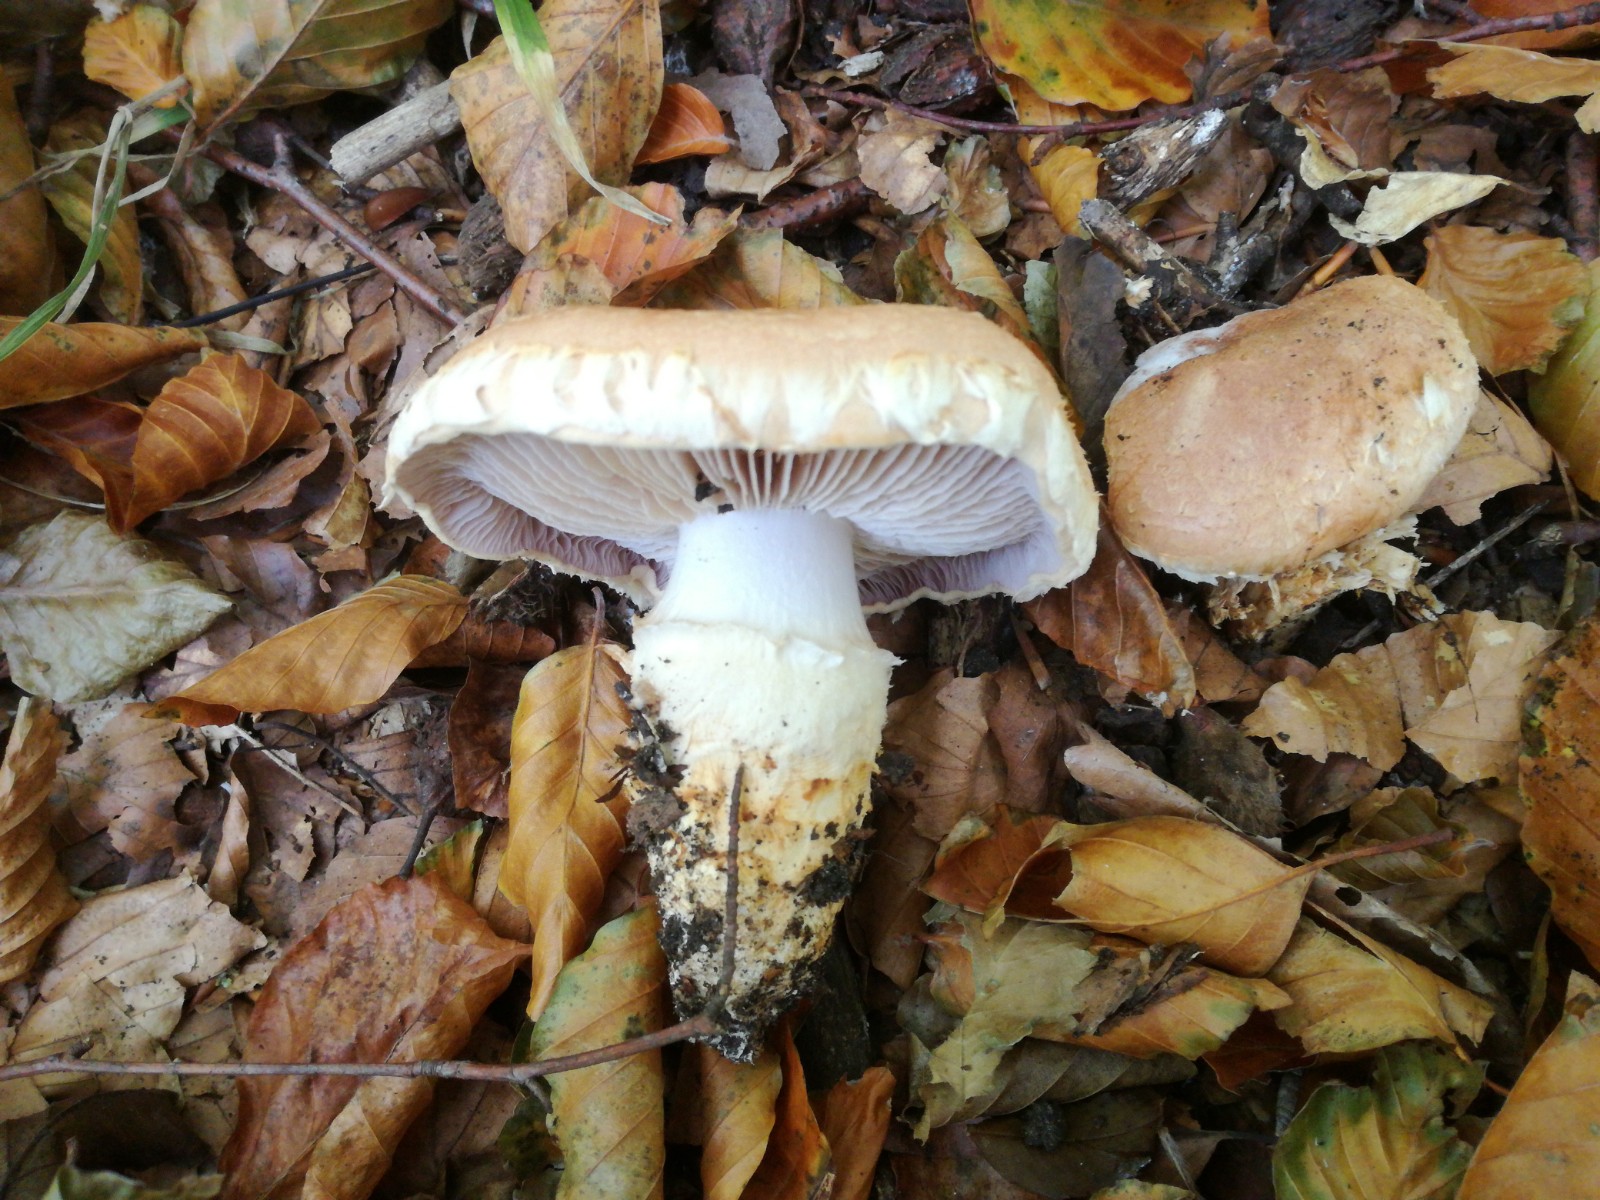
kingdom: Fungi
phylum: Basidiomycota
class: Agaricomycetes
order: Agaricales
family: Cortinariaceae
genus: Phlegmacium
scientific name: Phlegmacium vulpinum
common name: ringbæltet slørhat
